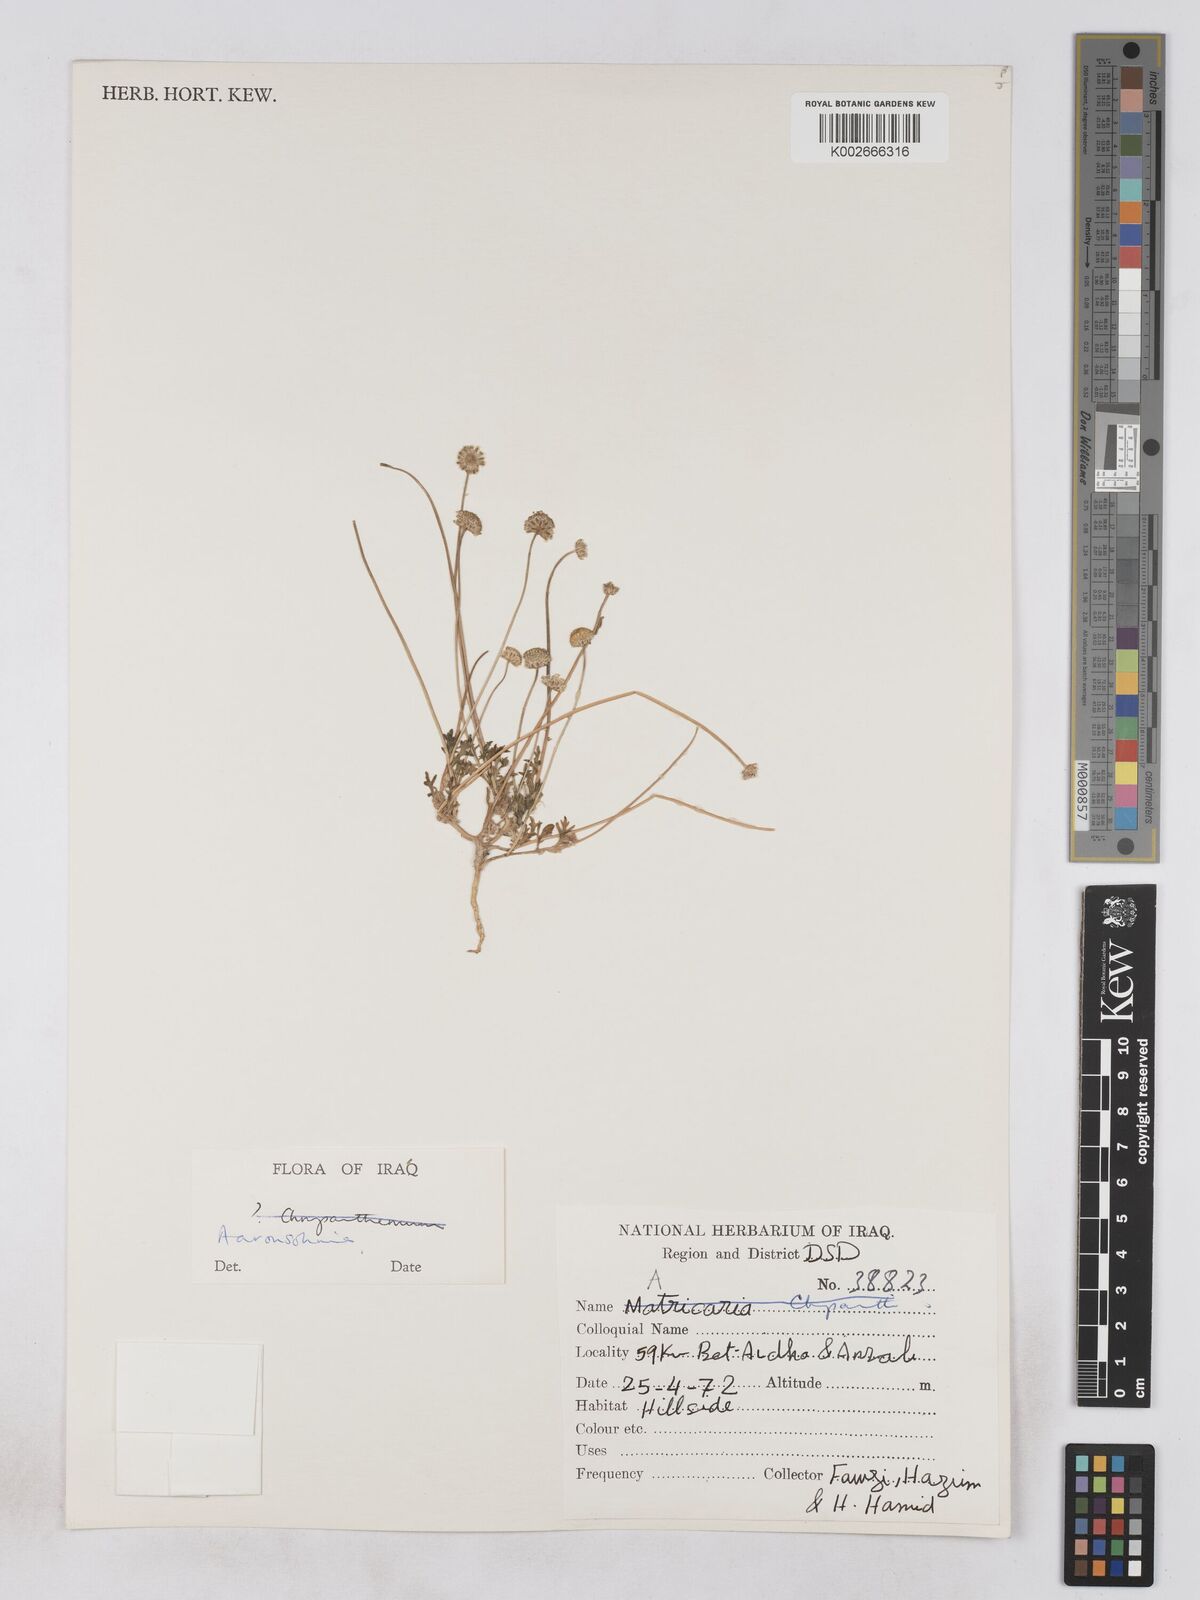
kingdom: Plantae
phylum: Tracheophyta
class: Magnoliopsida
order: Asterales
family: Asteraceae
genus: Otoglyphis
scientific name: Otoglyphis factorovskyi
